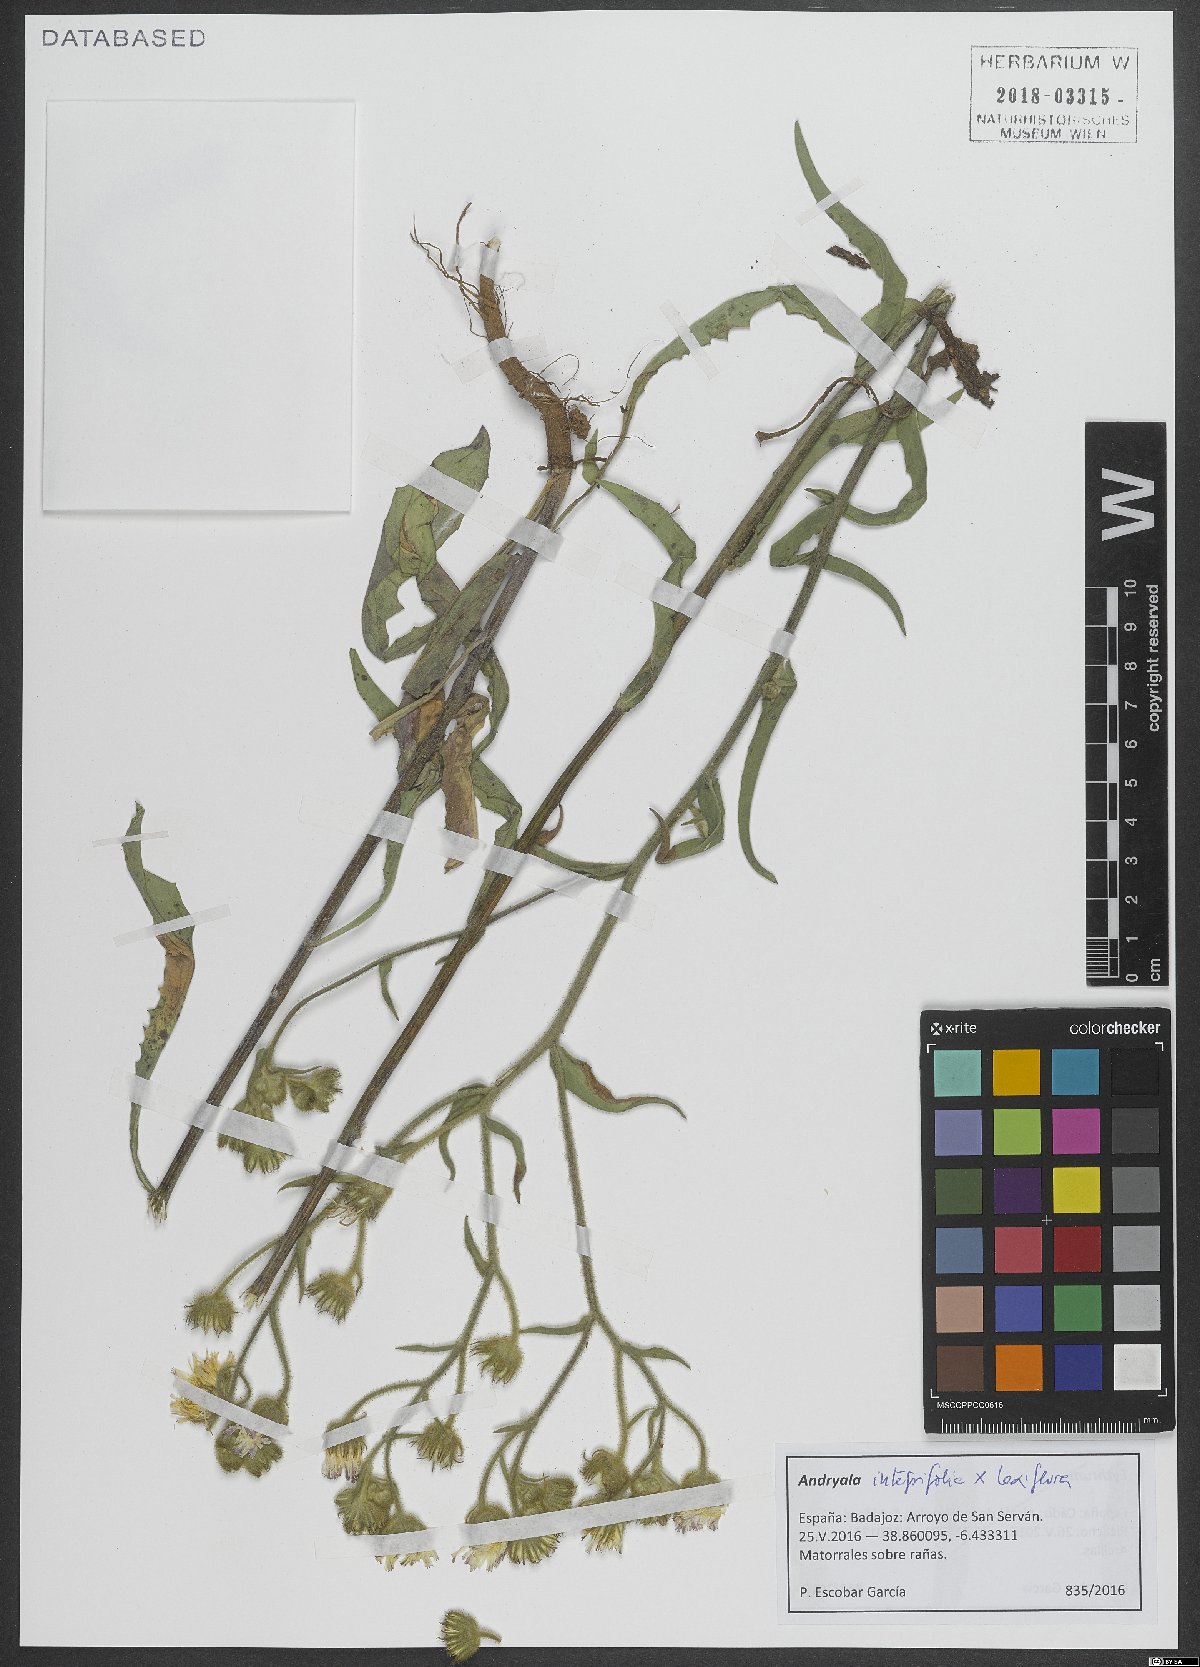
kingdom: Plantae
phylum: Tracheophyta
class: Magnoliopsida
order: Asterales
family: Asteraceae
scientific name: Asteraceae
